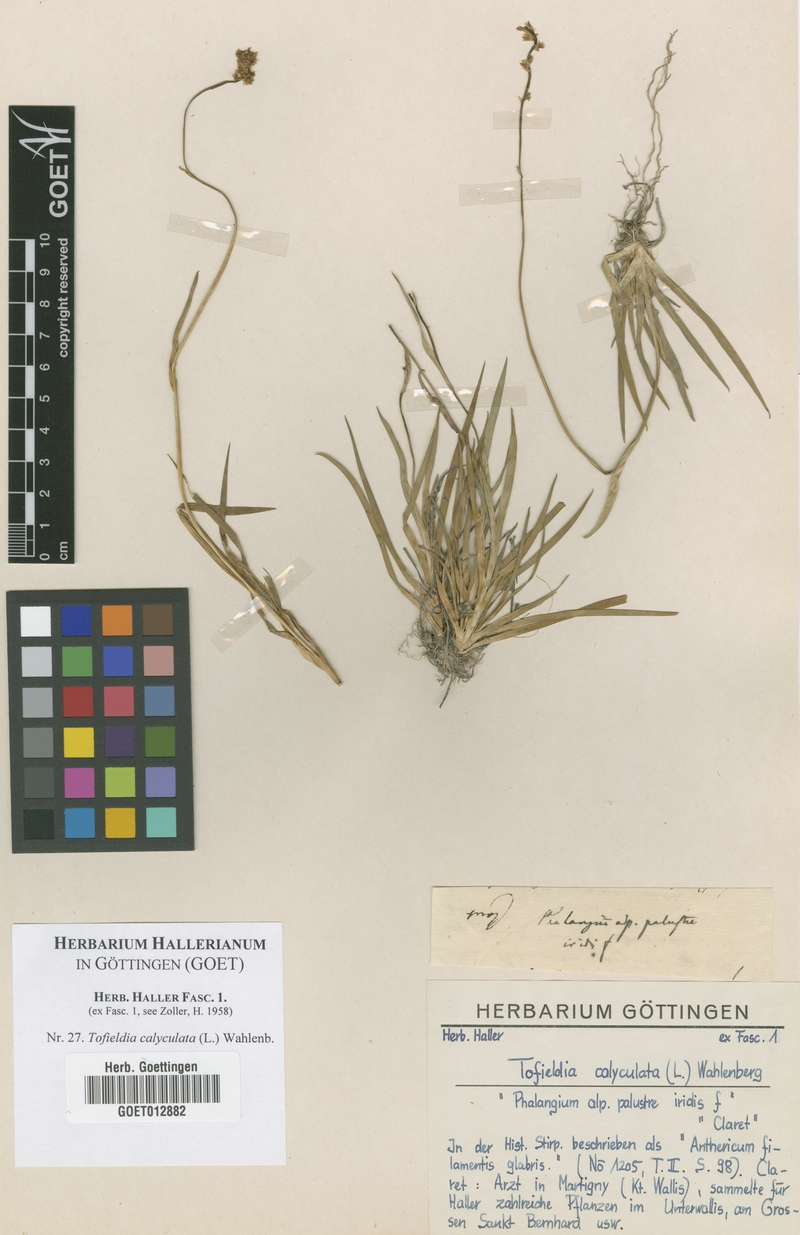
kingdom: Plantae
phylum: Tracheophyta
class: Liliopsida
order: Alismatales
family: Tofieldiaceae
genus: Tofieldia
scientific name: Tofieldia calyculata
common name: German-asphodel
